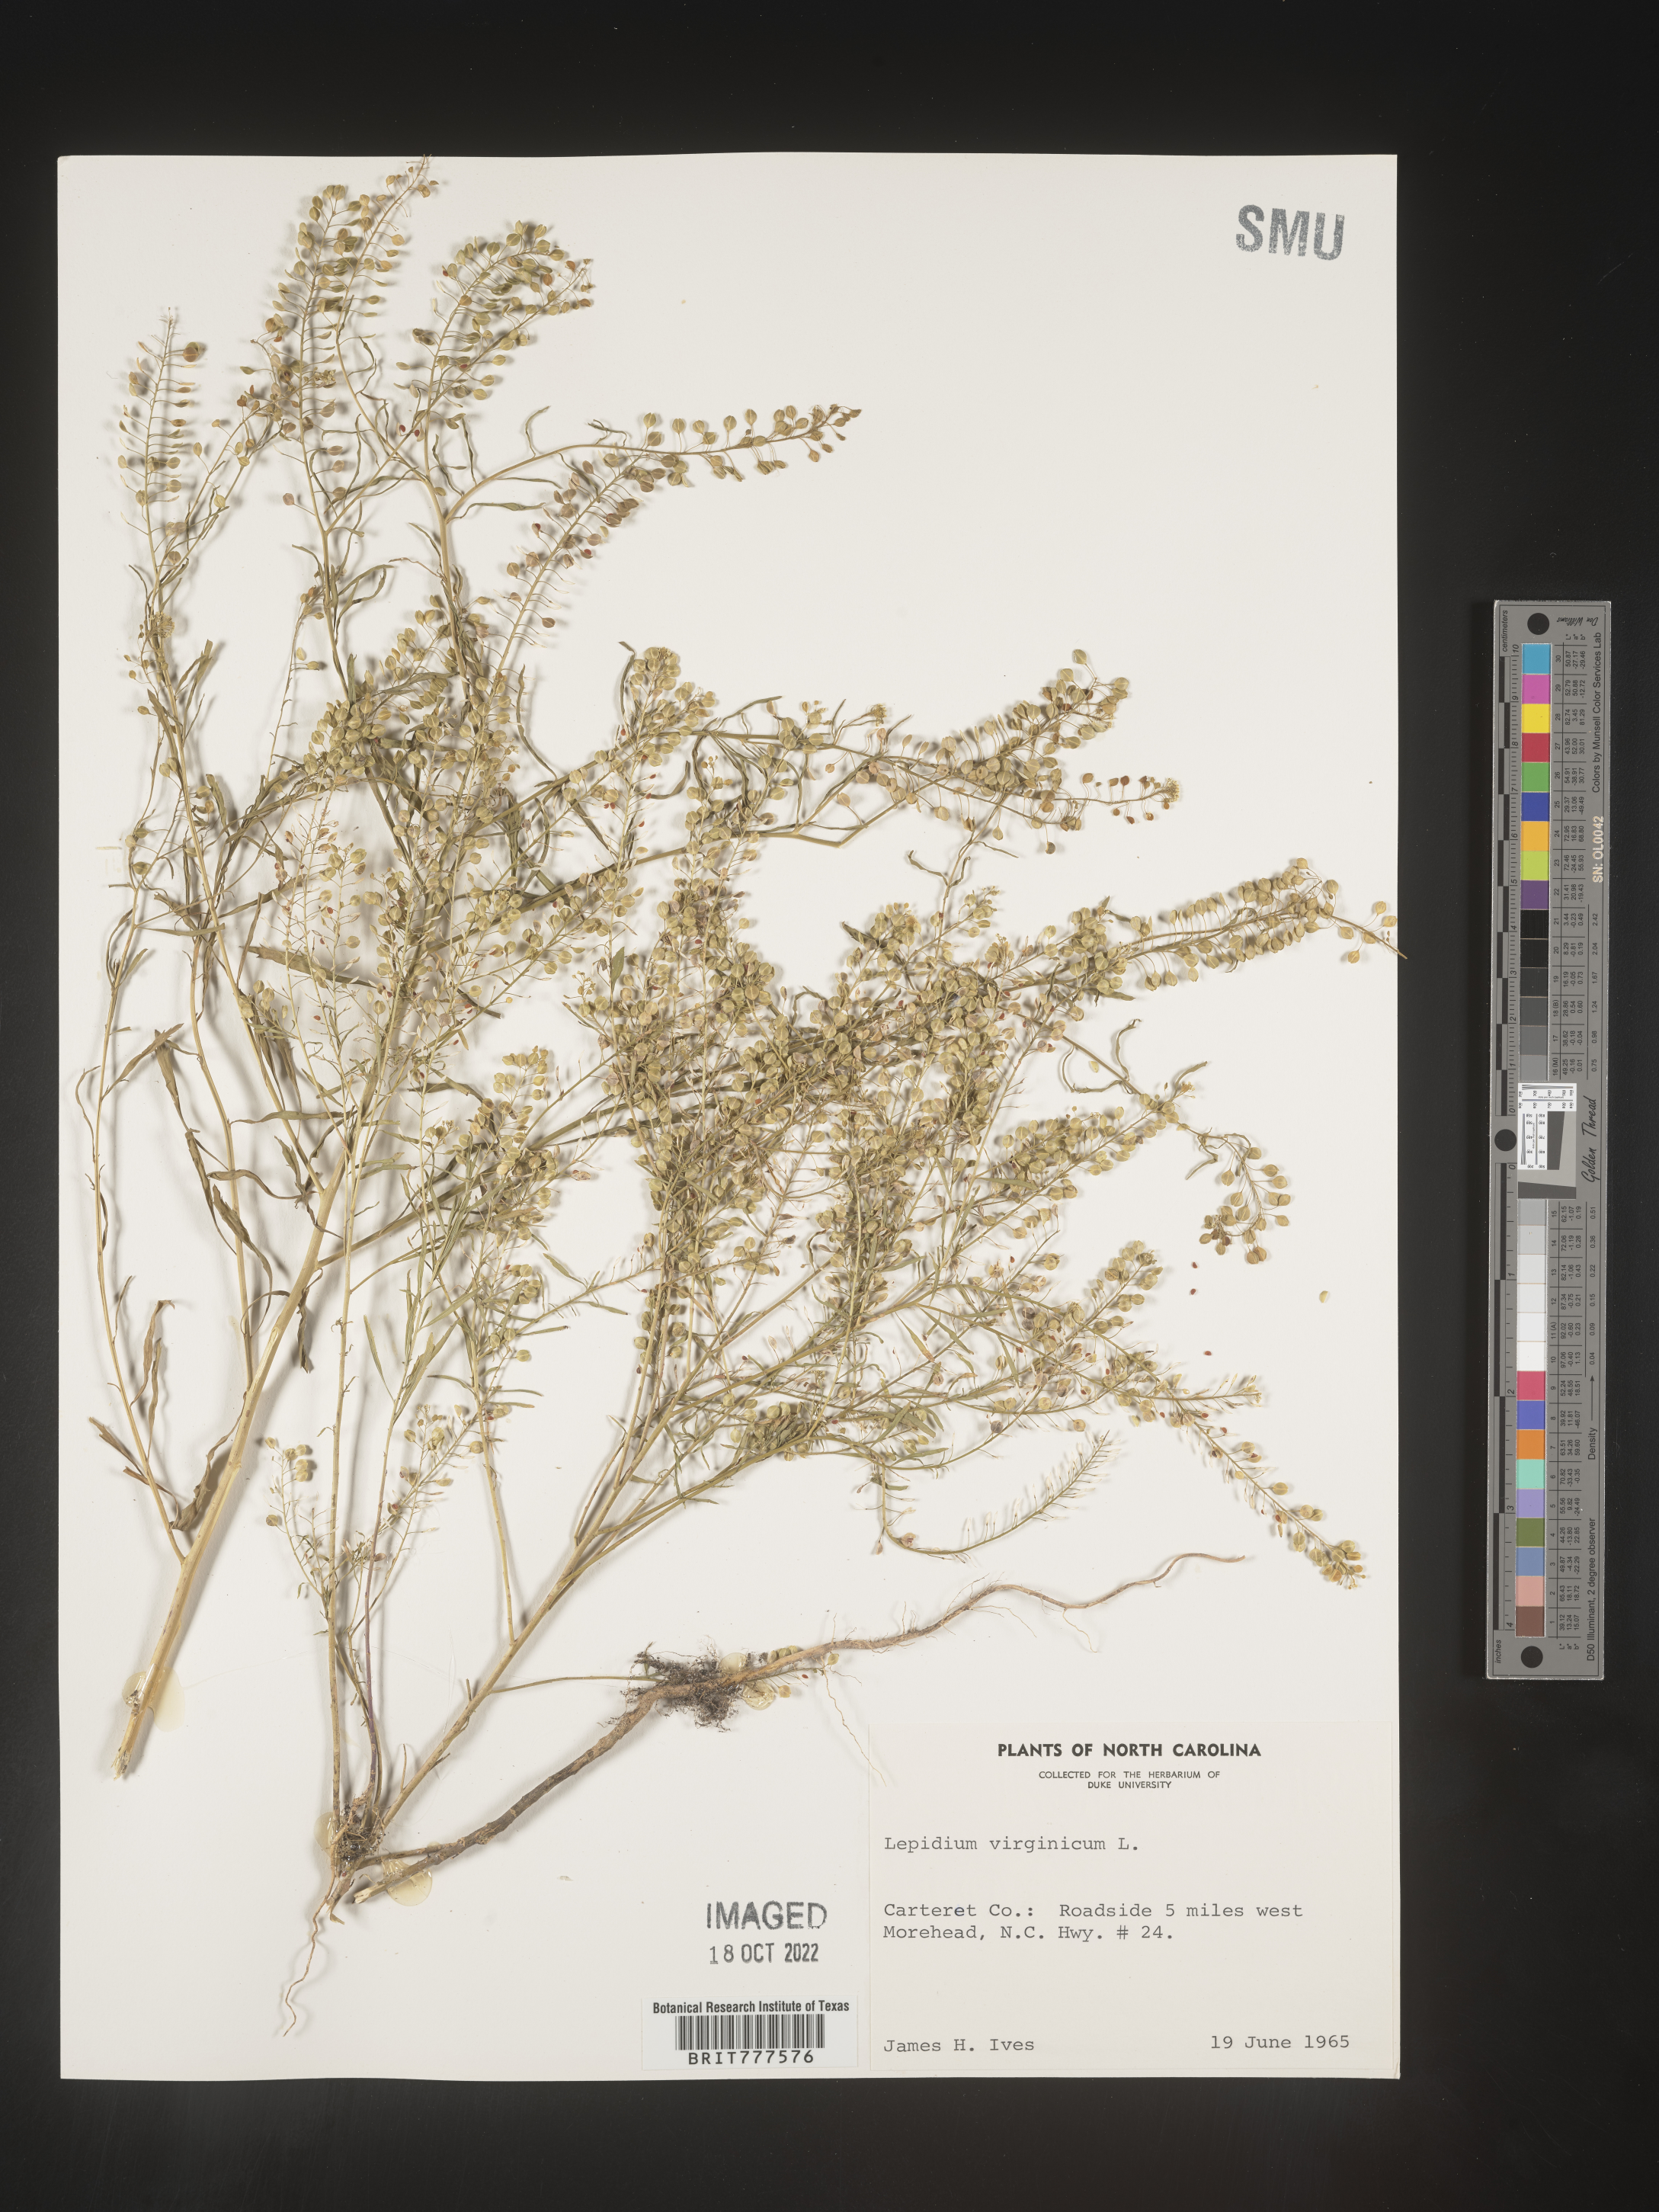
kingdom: Plantae
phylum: Tracheophyta
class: Magnoliopsida
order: Brassicales
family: Brassicaceae
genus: Lepidium
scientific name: Lepidium virginicum
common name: Least pepperwort
